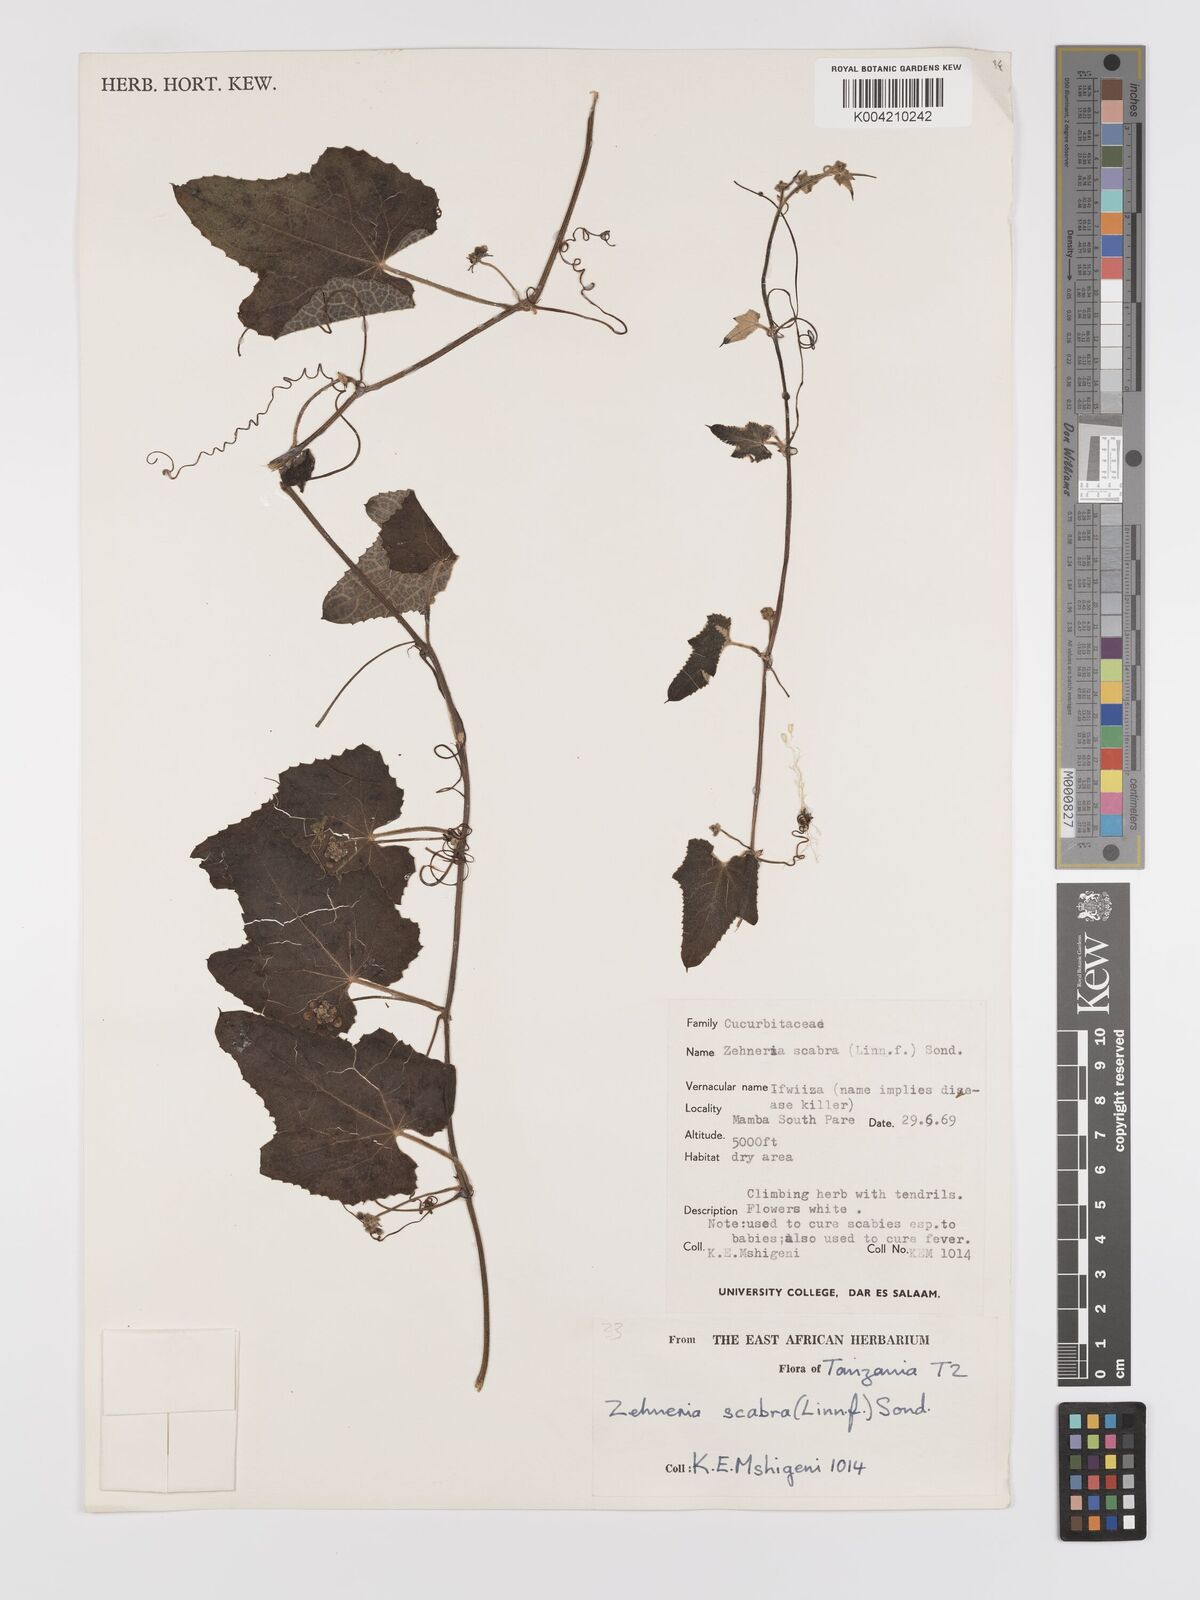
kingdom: Plantae
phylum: Tracheophyta
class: Magnoliopsida
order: Cucurbitales
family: Cucurbitaceae
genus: Zehneria
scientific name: Zehneria scabra
